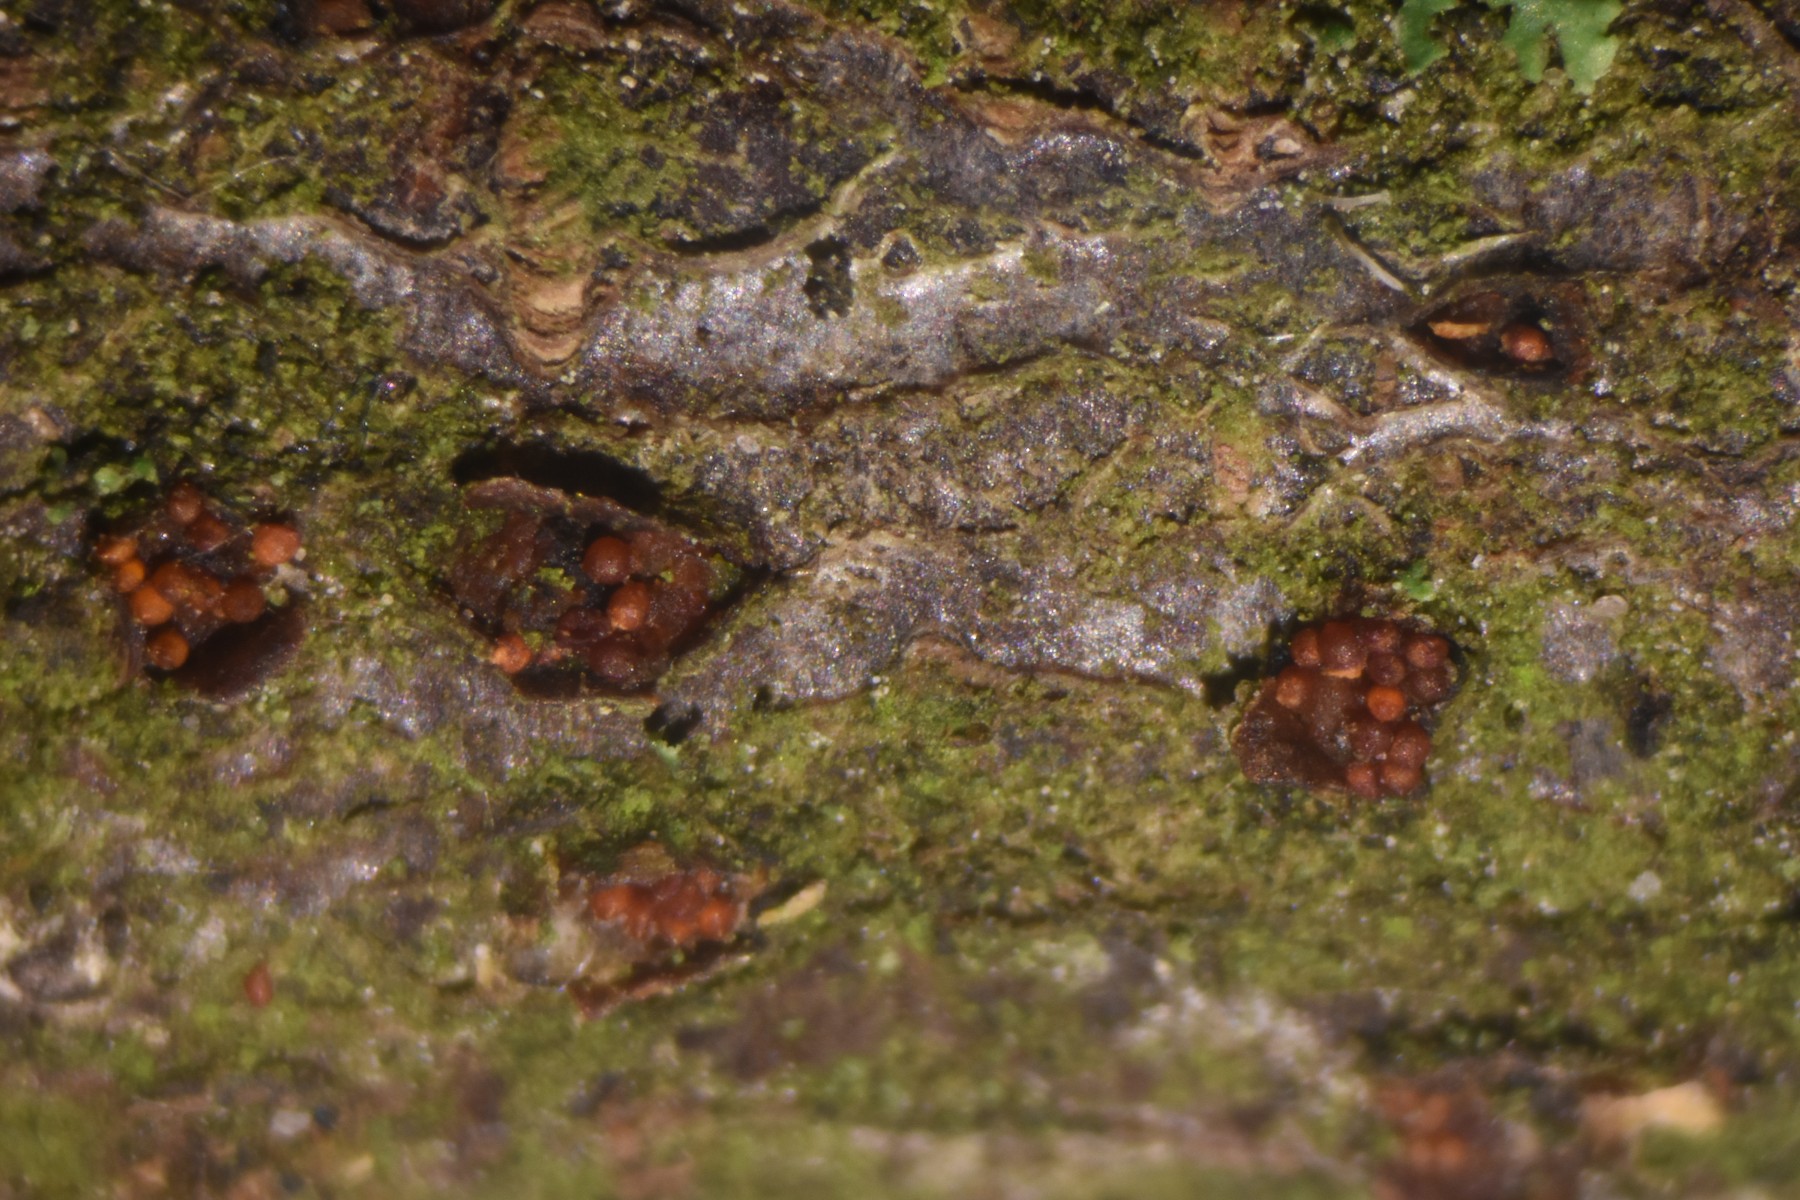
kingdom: Fungi
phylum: Ascomycota
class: Sordariomycetes
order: Hypocreales
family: Nectriaceae
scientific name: Nectriaceae
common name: cinnobersvampfamilien
